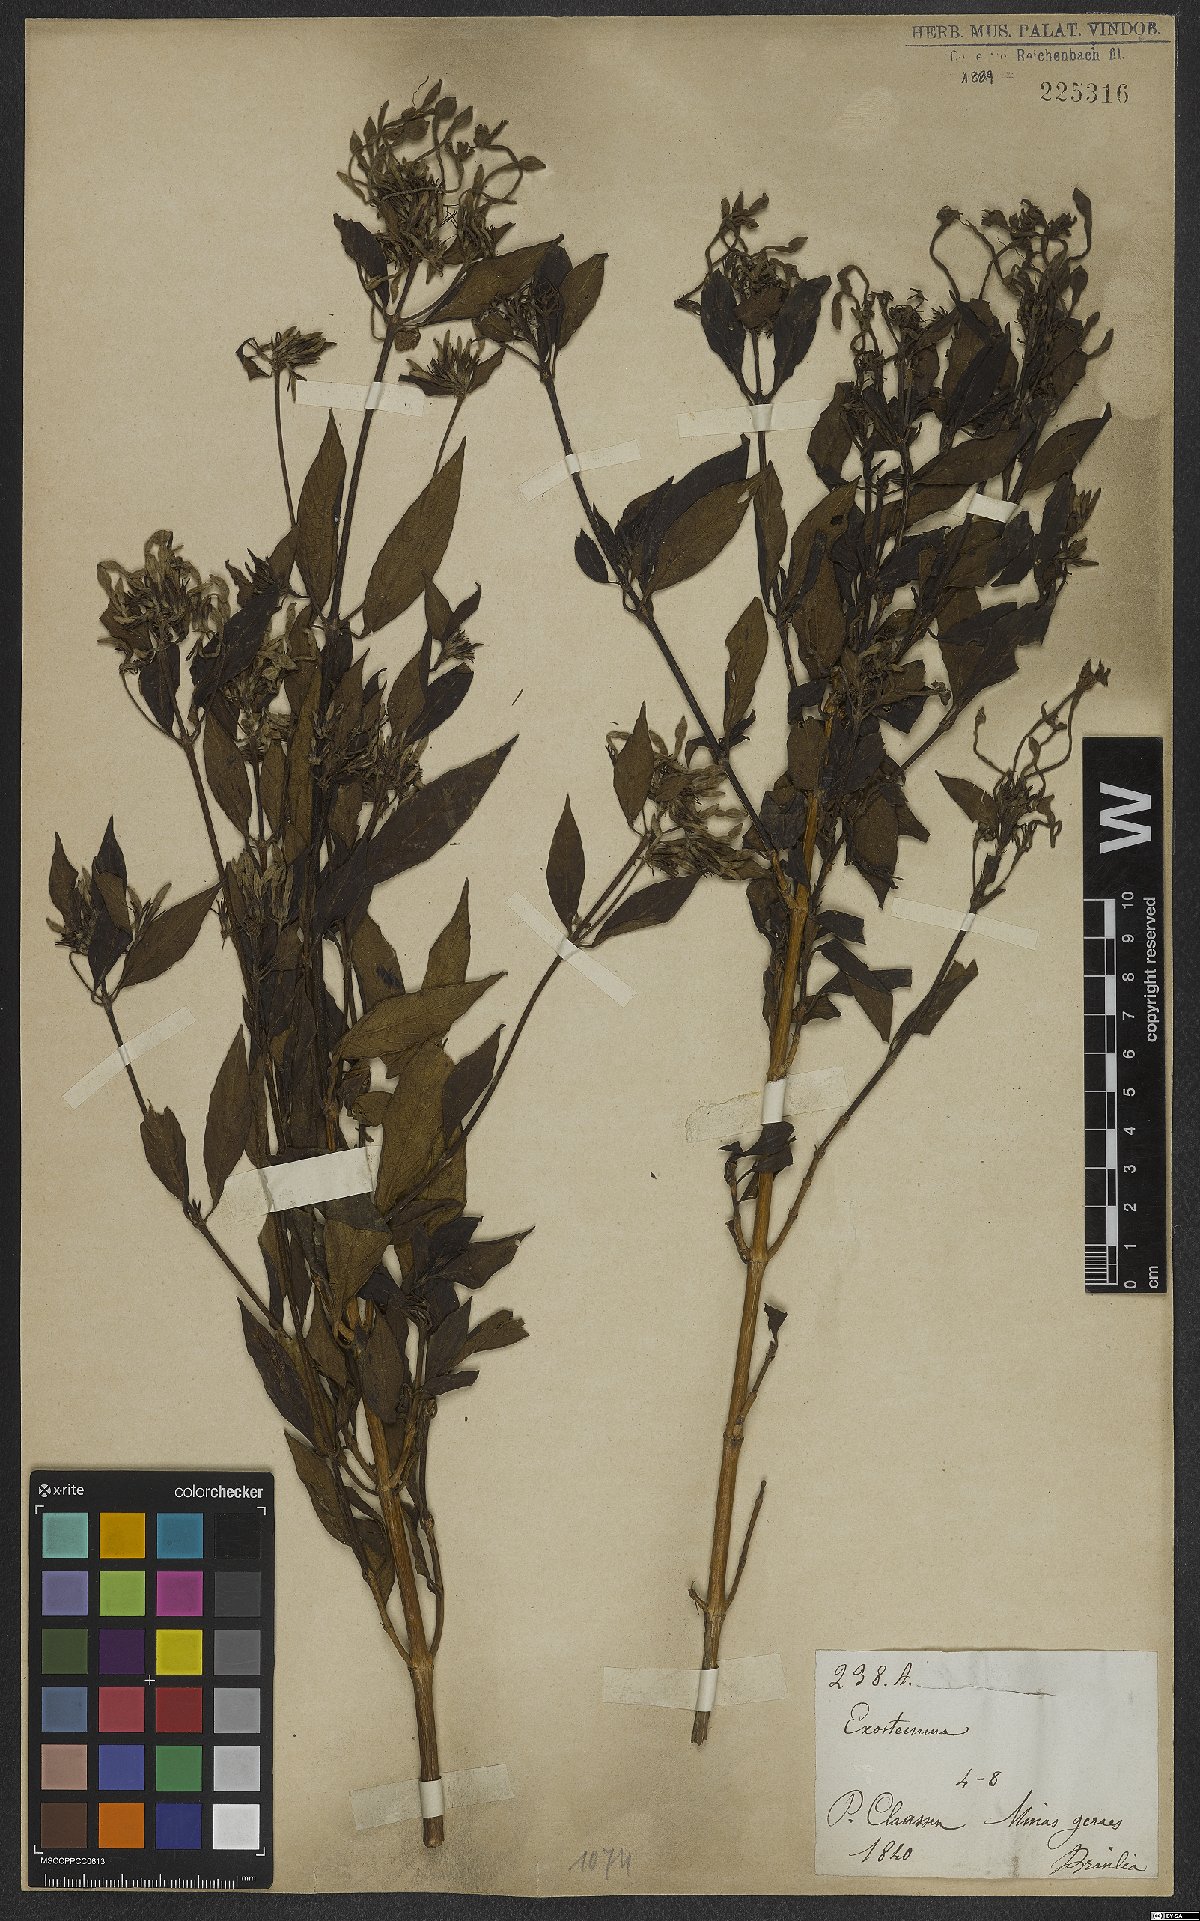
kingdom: Plantae
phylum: Tracheophyta
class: Magnoliopsida
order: Gentianales
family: Rubiaceae
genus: Exostema
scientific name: Exostema
